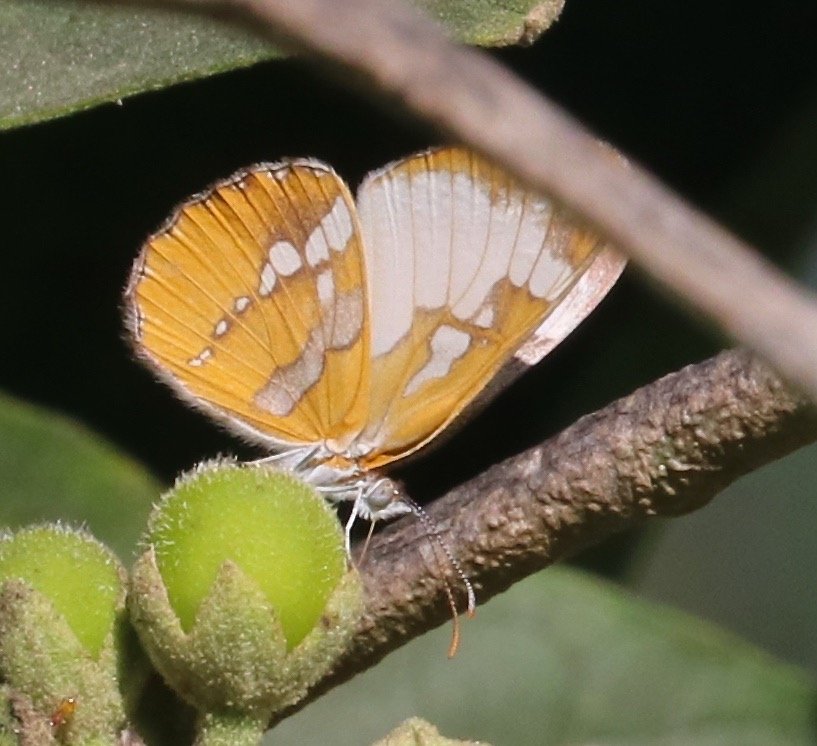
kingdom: Animalia
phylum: Arthropoda
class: Insecta
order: Lepidoptera
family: Nymphalidae
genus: Mestra
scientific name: Mestra amymone
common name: Common Mestra
